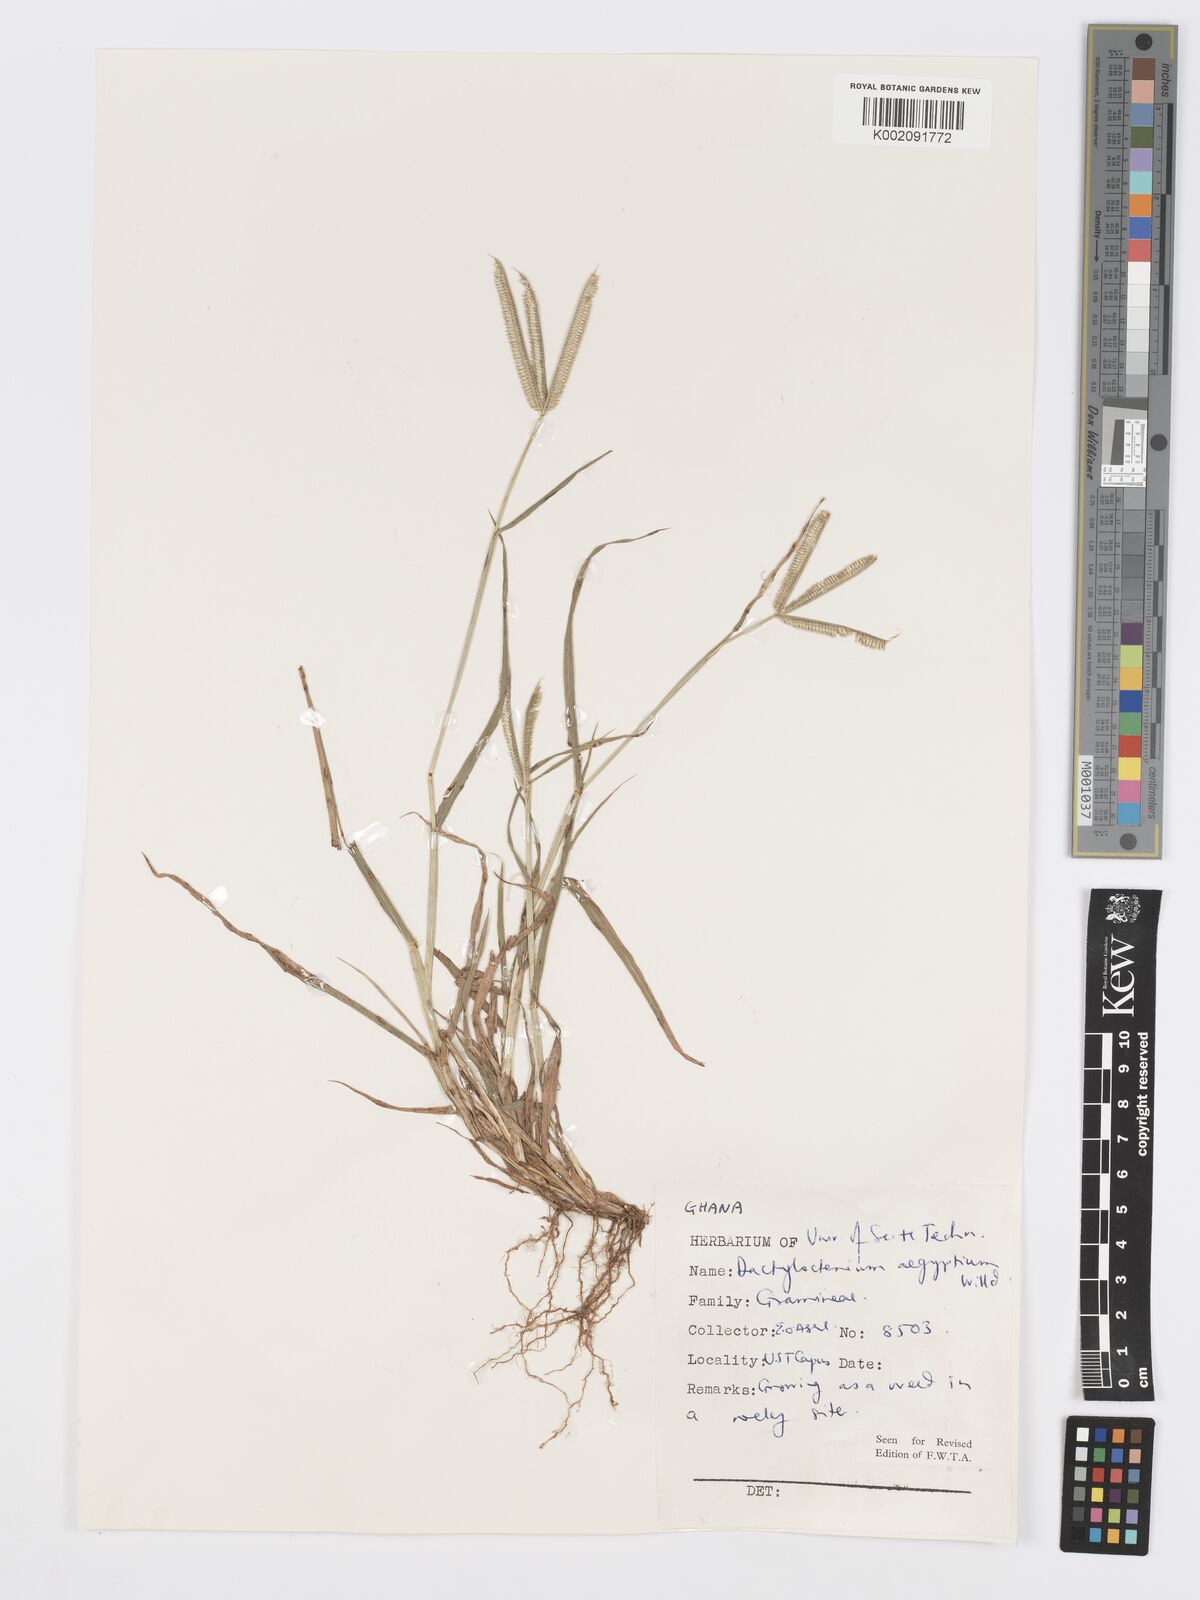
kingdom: Plantae
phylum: Tracheophyta
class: Liliopsida
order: Poales
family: Poaceae
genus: Dactyloctenium
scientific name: Dactyloctenium aegyptium
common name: Egyptian grass
